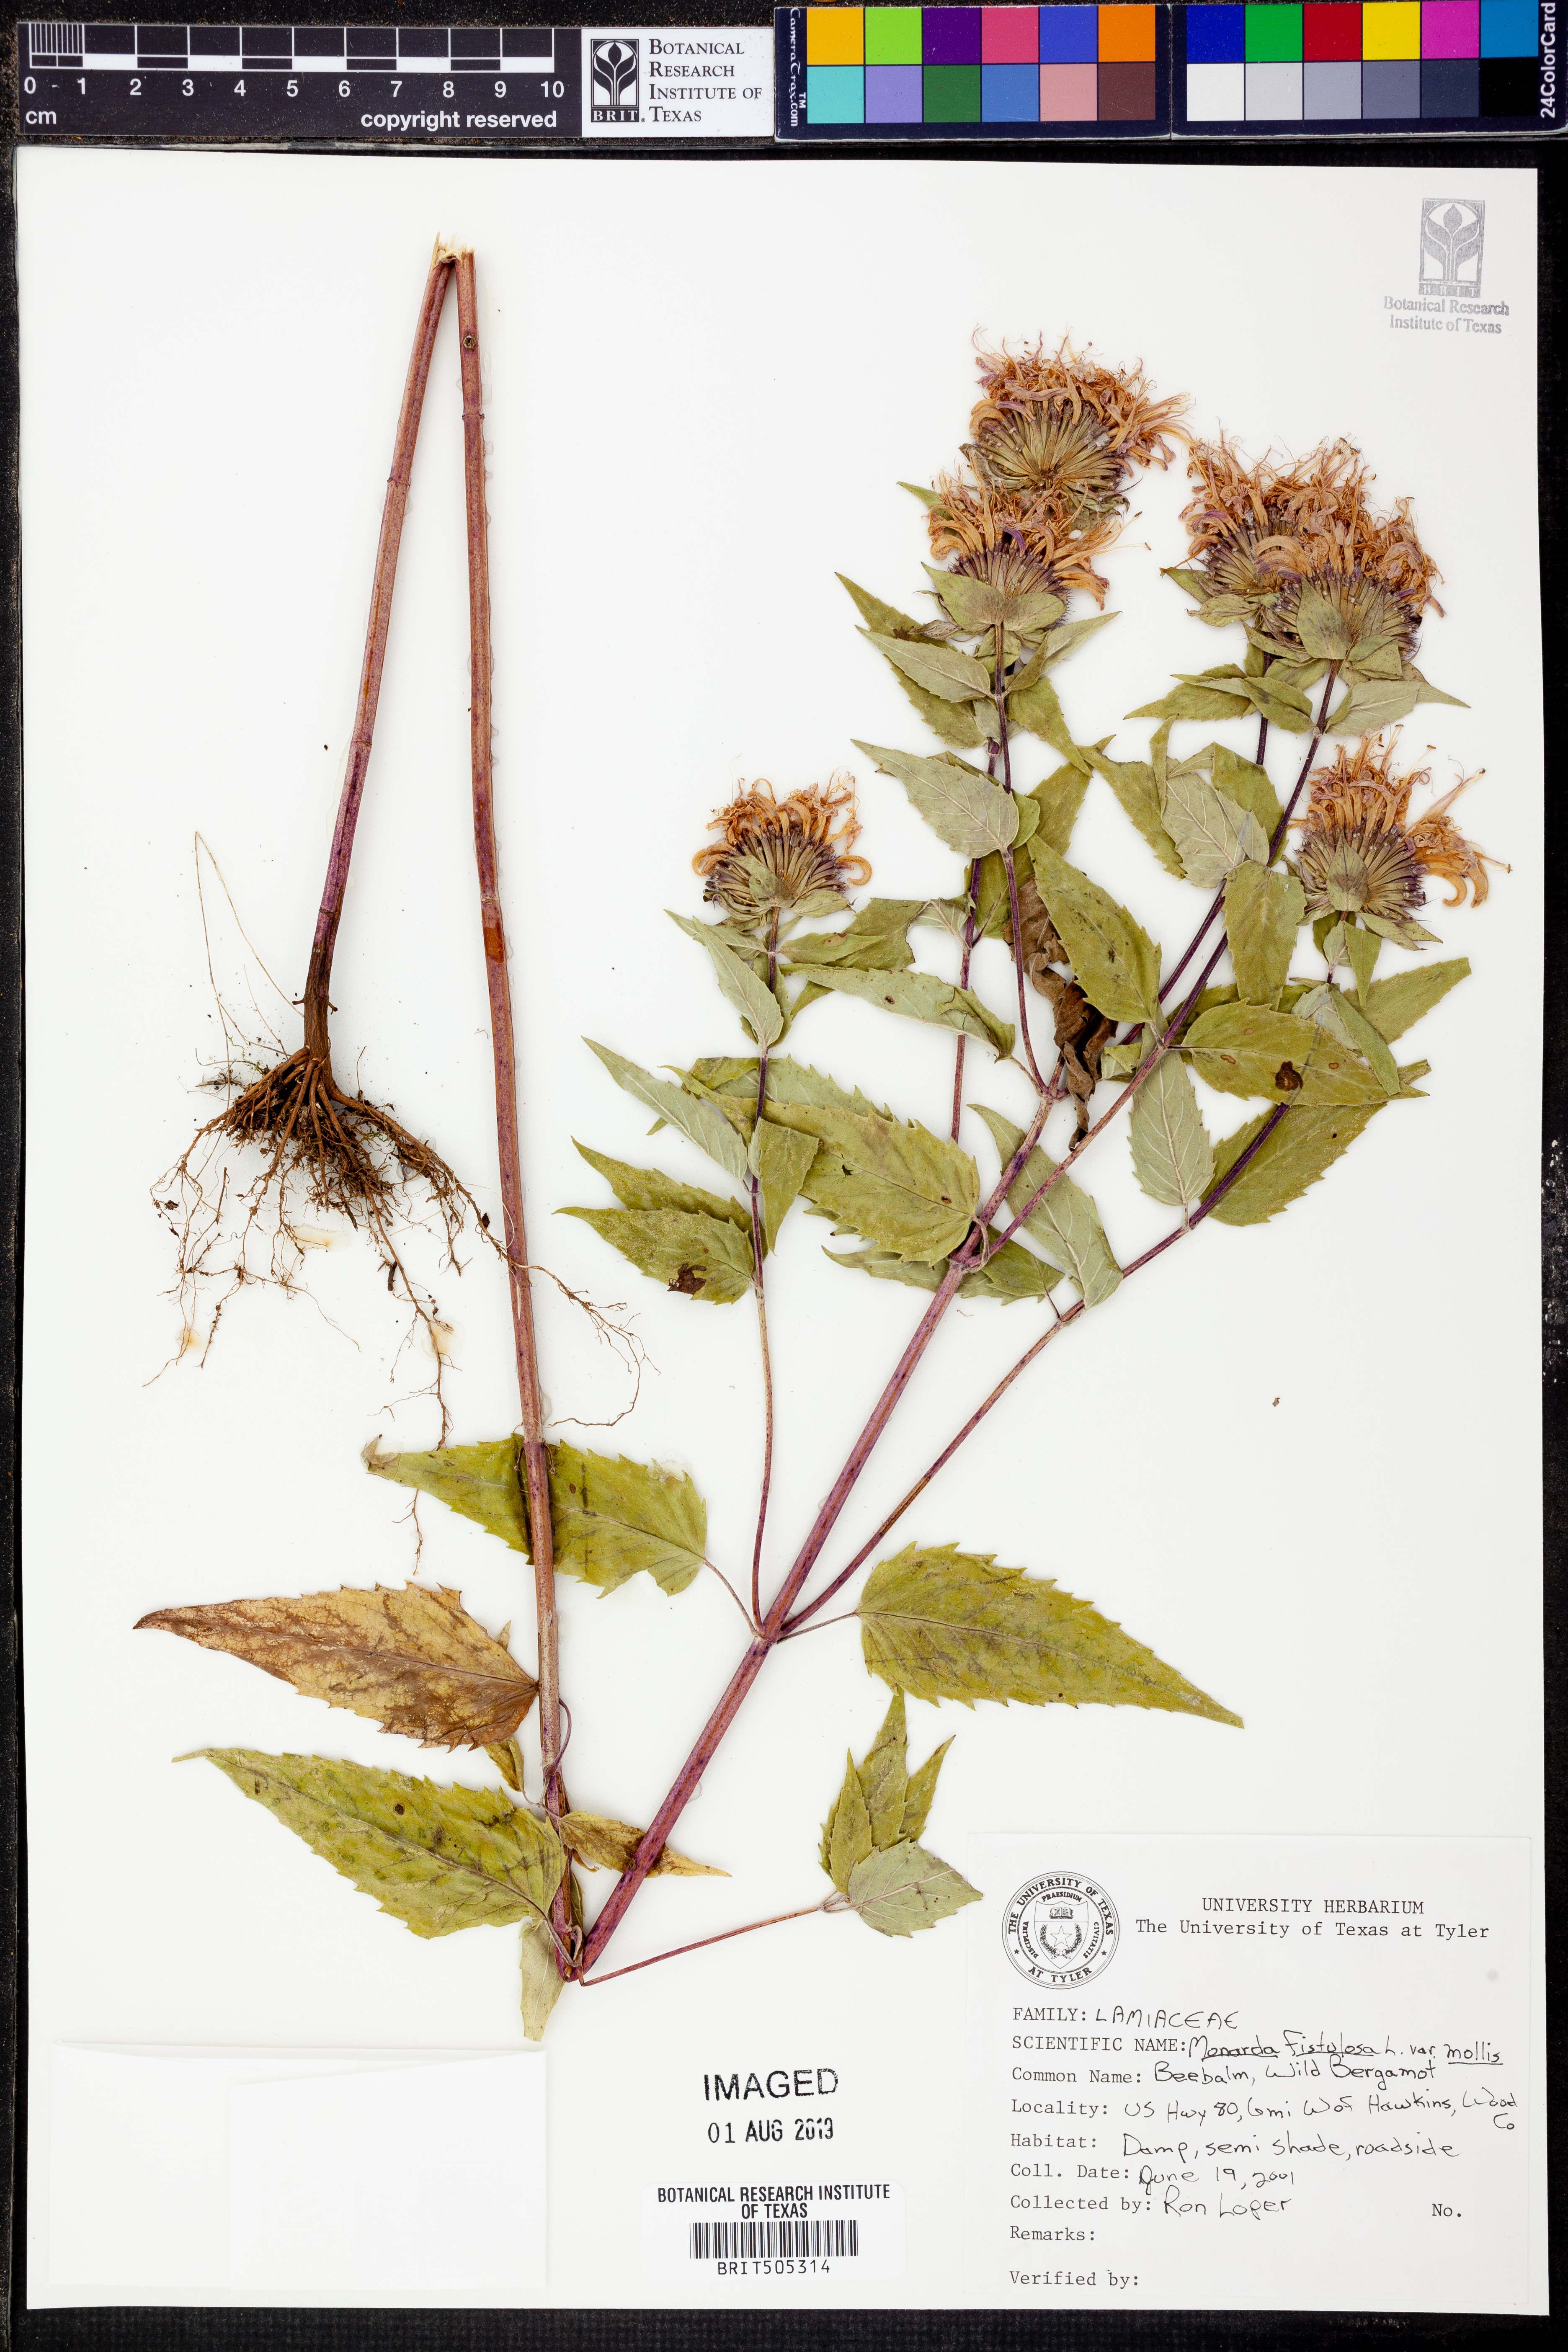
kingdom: Plantae
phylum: Tracheophyta
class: Magnoliopsida
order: Lamiales
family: Lamiaceae
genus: Monarda
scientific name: Monarda fistulosa
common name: Purple beebalm
